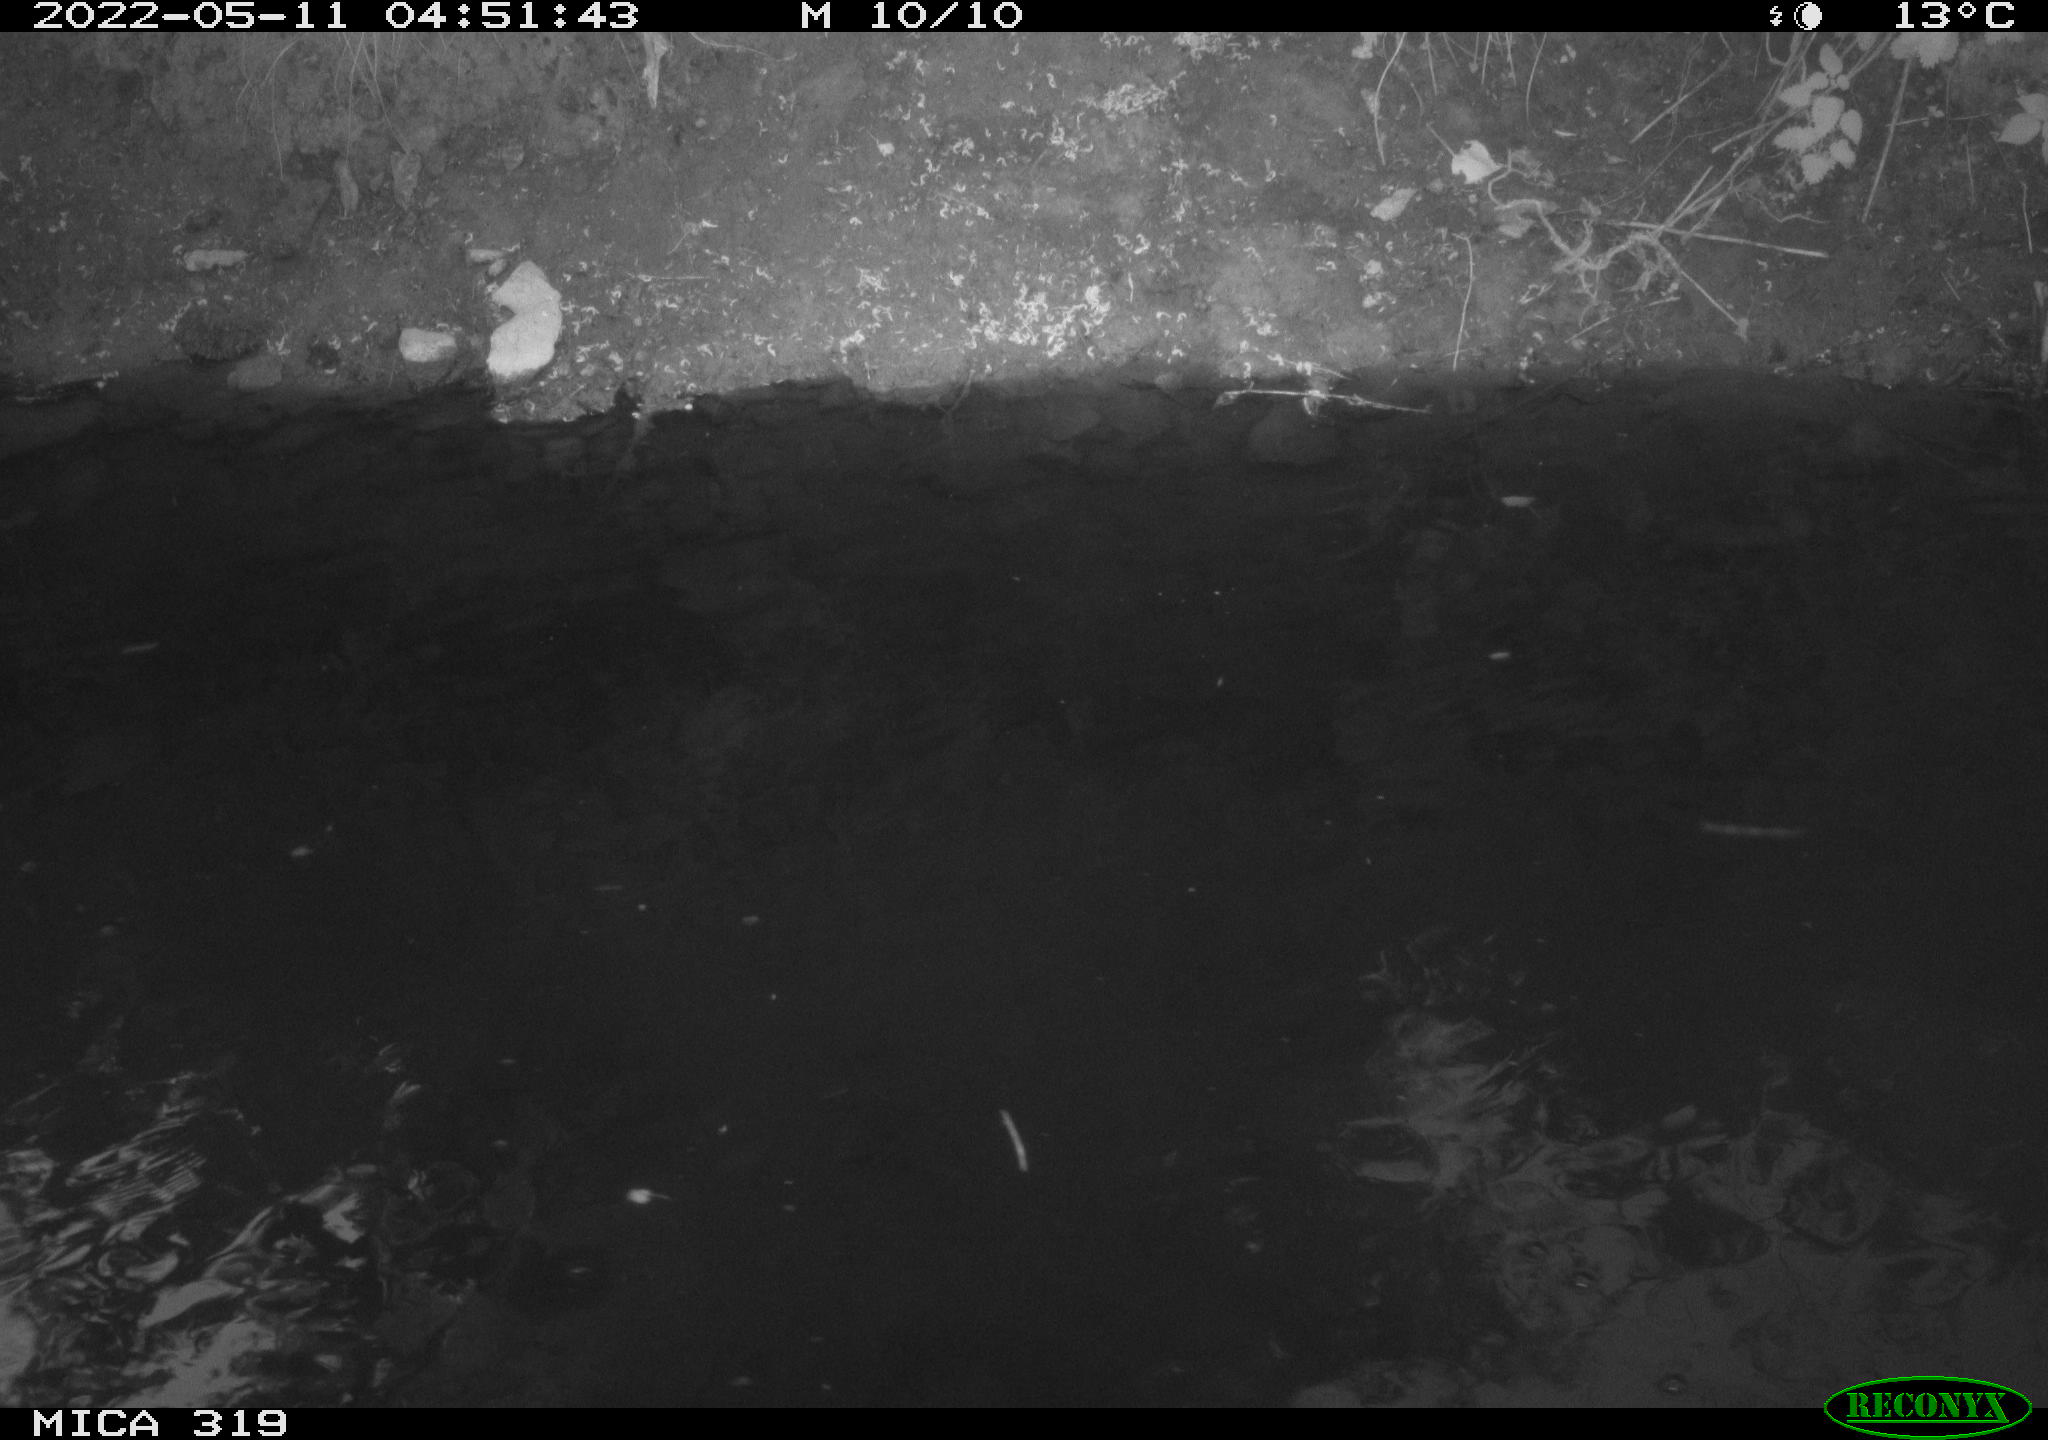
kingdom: Animalia
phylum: Chordata
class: Aves
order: Gruiformes
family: Rallidae
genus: Gallinula
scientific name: Gallinula chloropus
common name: Common moorhen
